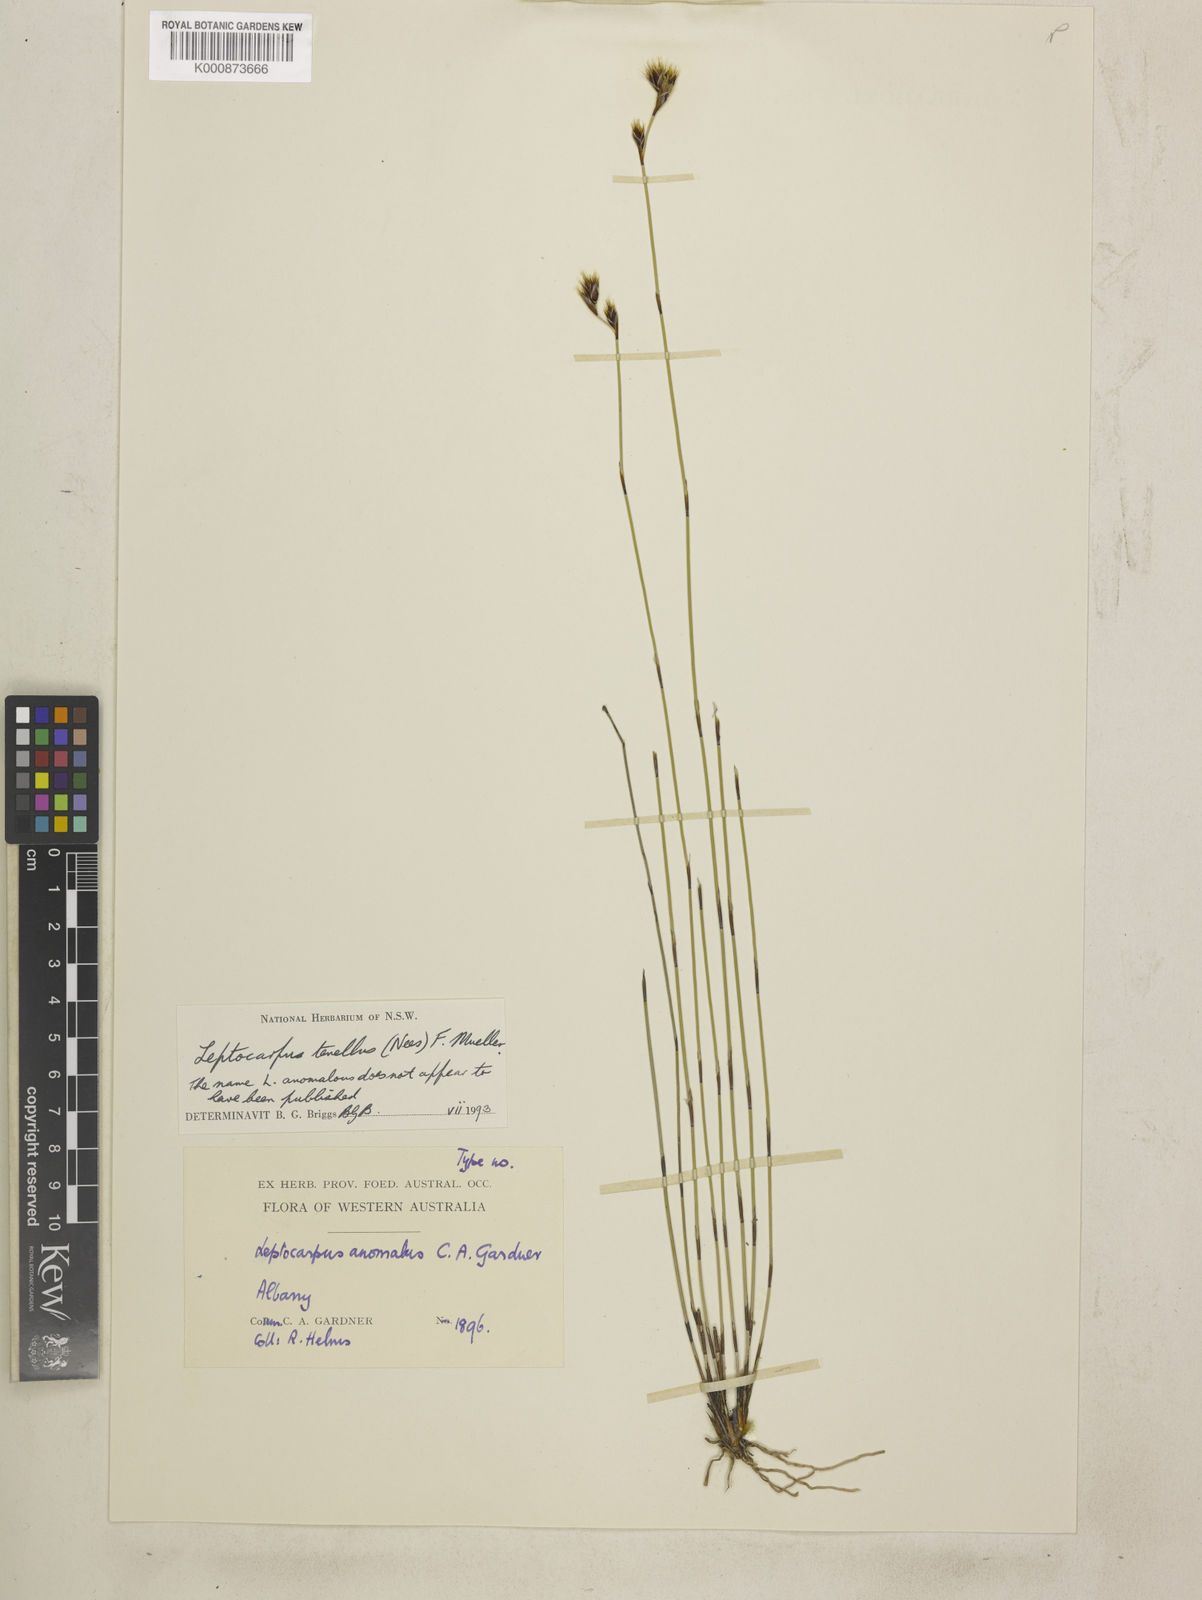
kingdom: Plantae
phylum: Tracheophyta
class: Liliopsida
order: Poales
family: Restionaceae
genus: Chaetanthus
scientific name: Chaetanthus tenellus
